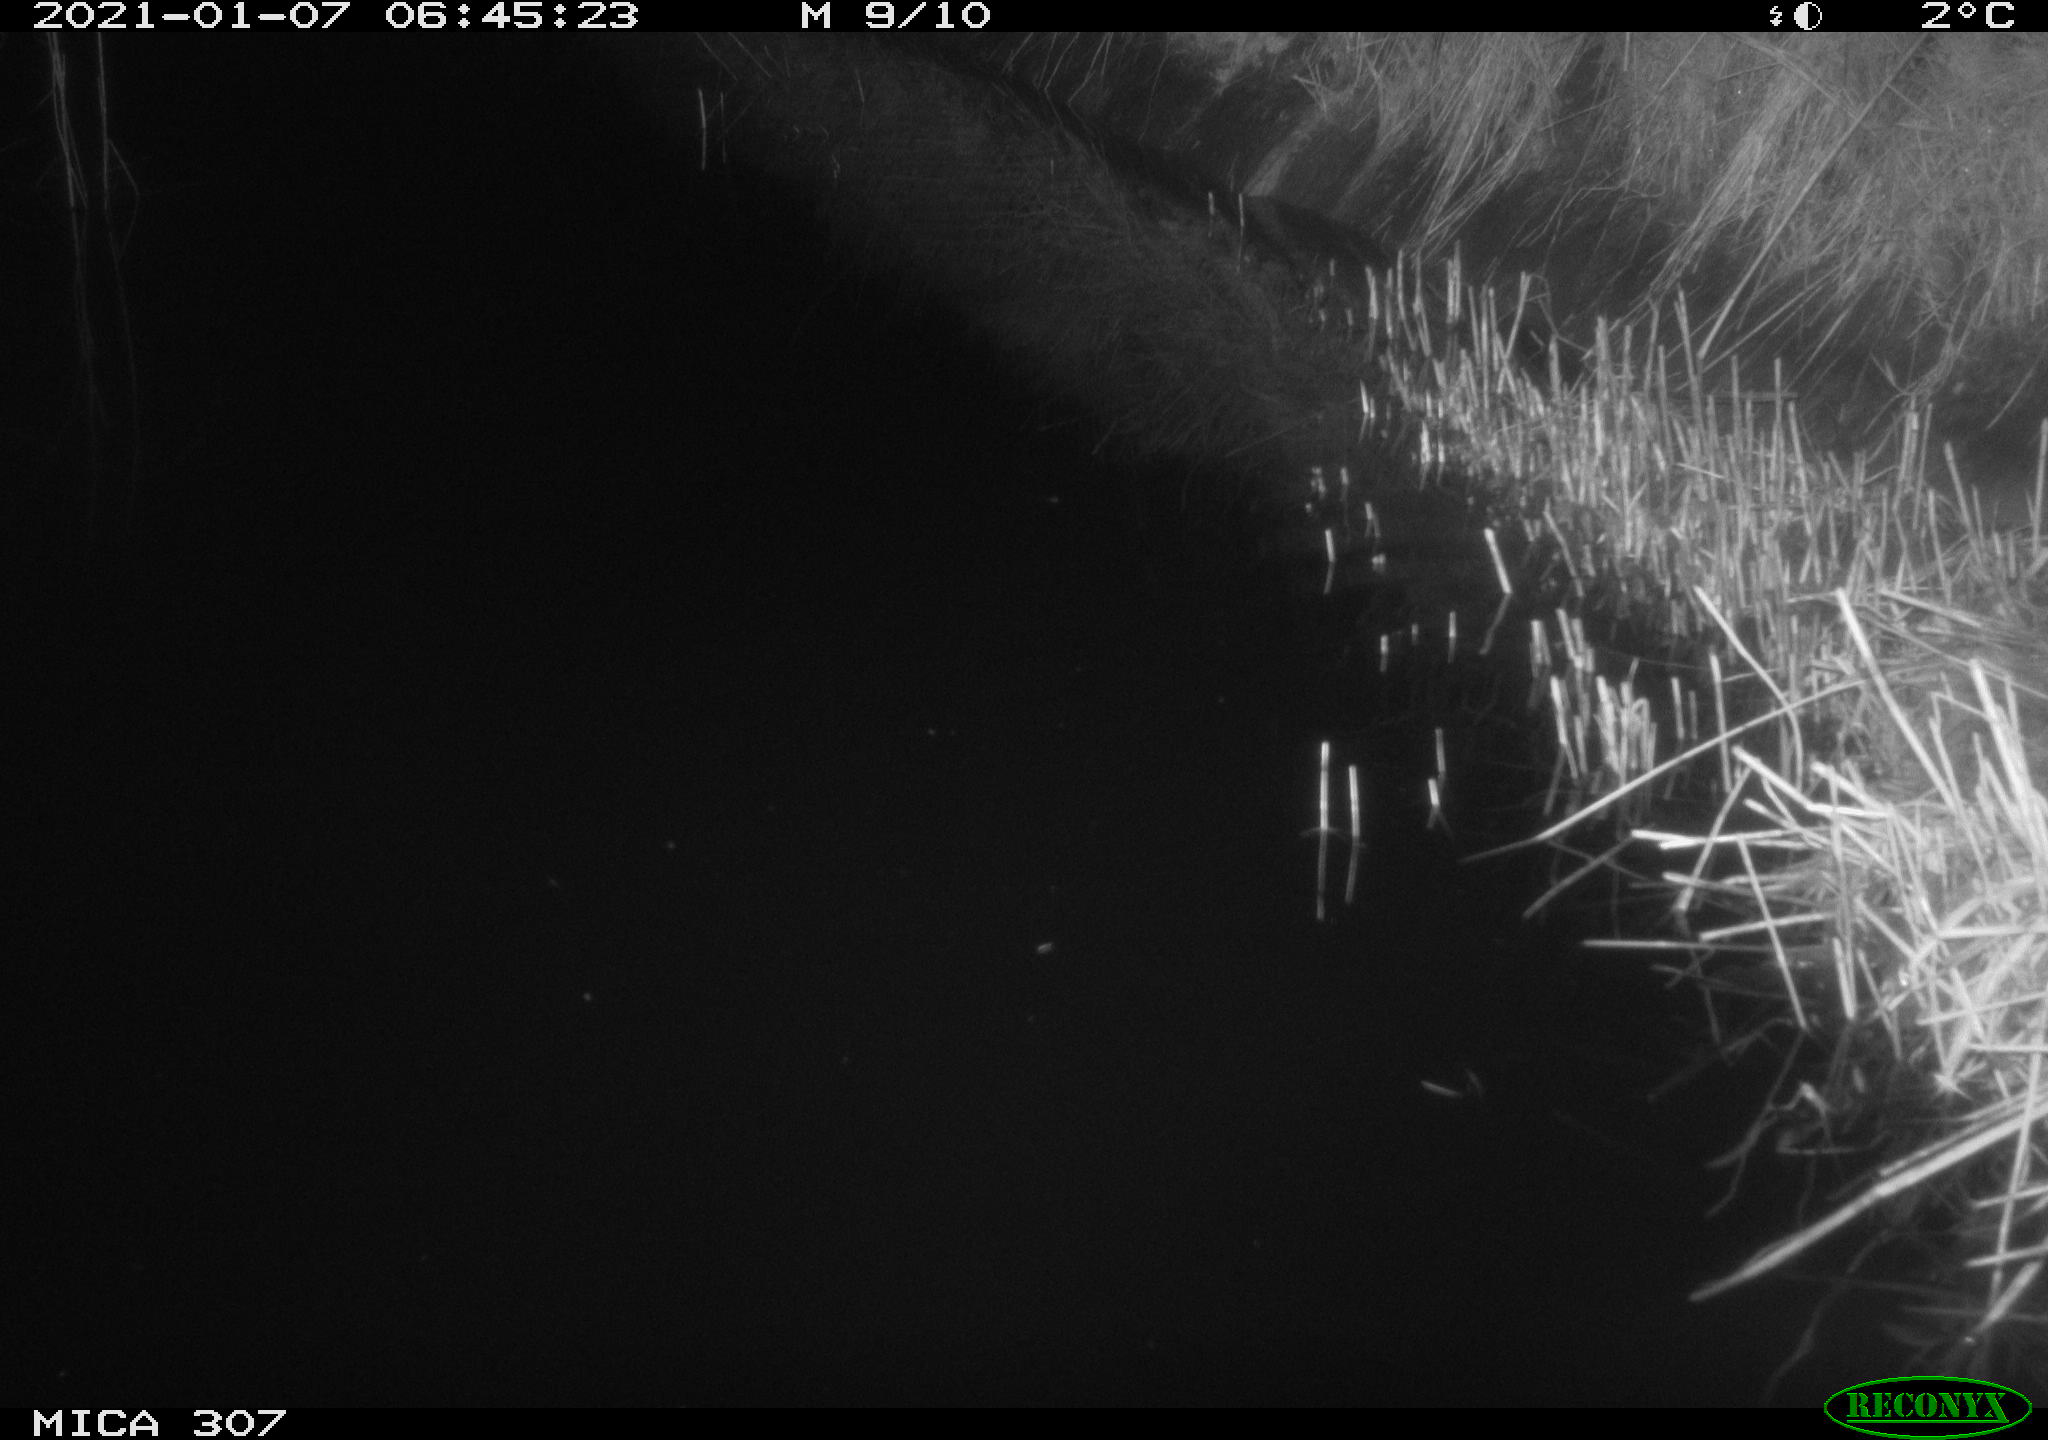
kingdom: Animalia
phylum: Chordata
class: Mammalia
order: Rodentia
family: Muridae
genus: Rattus
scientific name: Rattus norvegicus
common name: Brown rat
